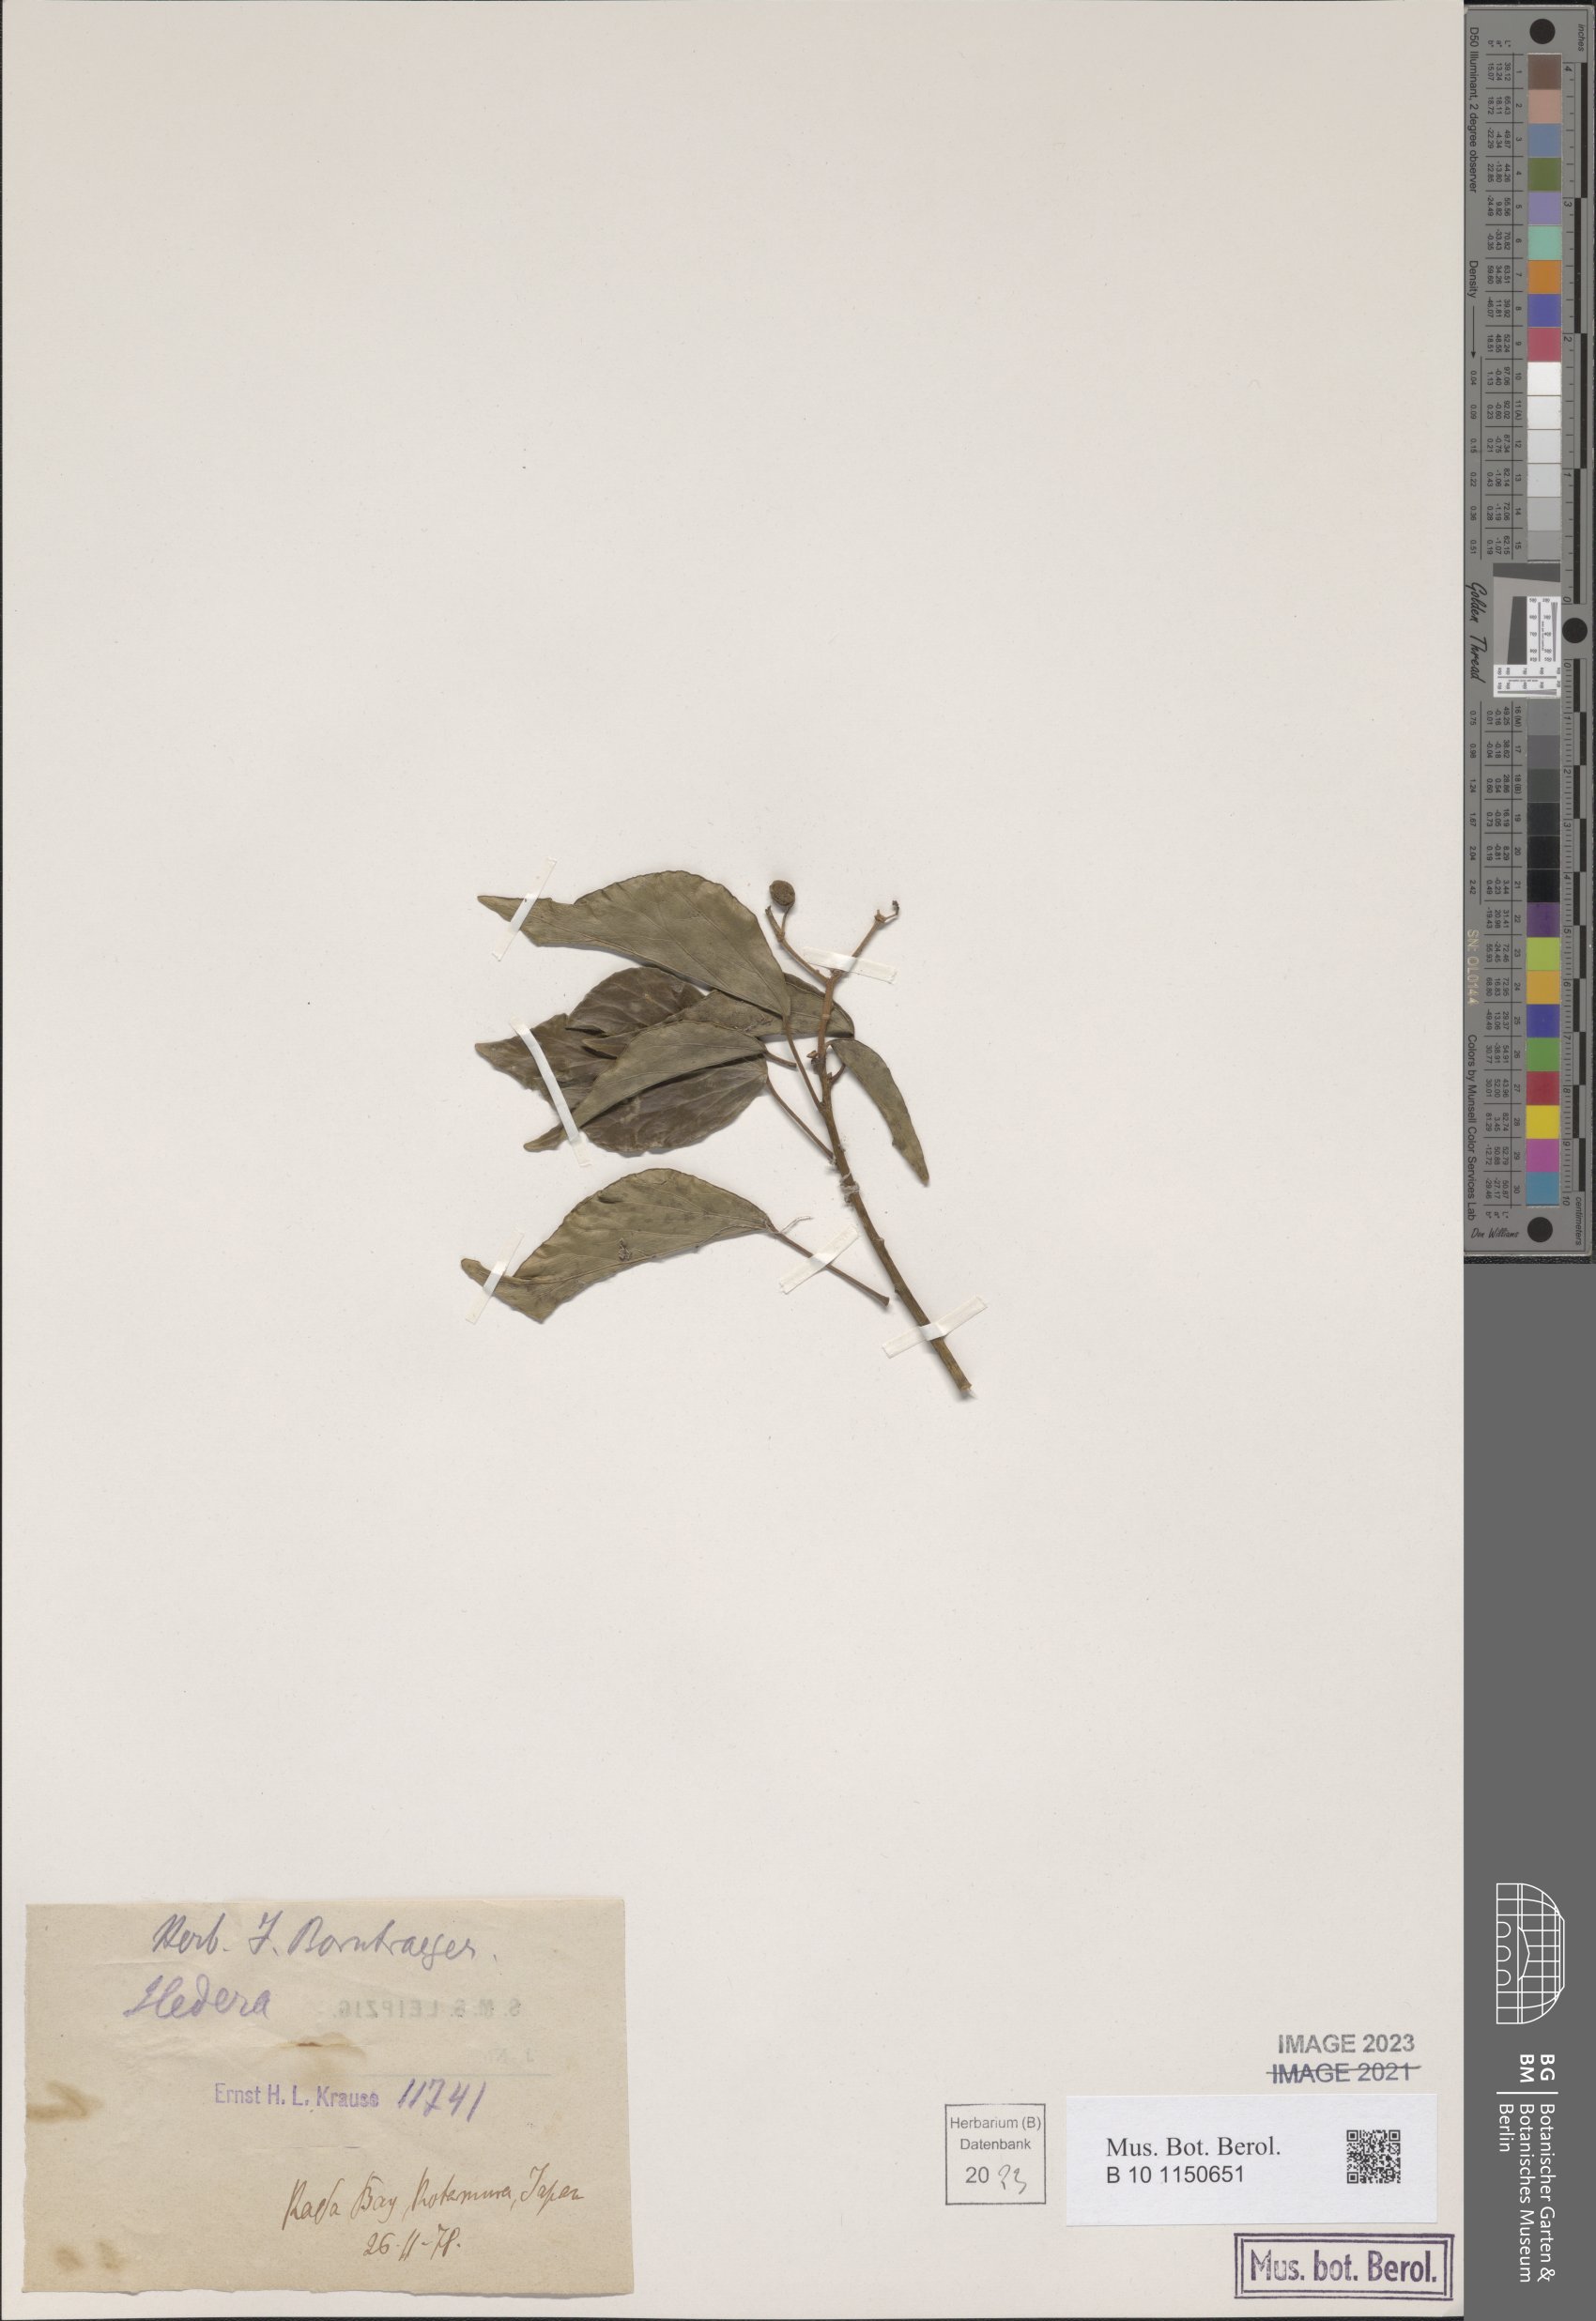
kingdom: Plantae
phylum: Tracheophyta
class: Magnoliopsida
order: Apiales
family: Araliaceae
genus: Hedera
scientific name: Hedera
